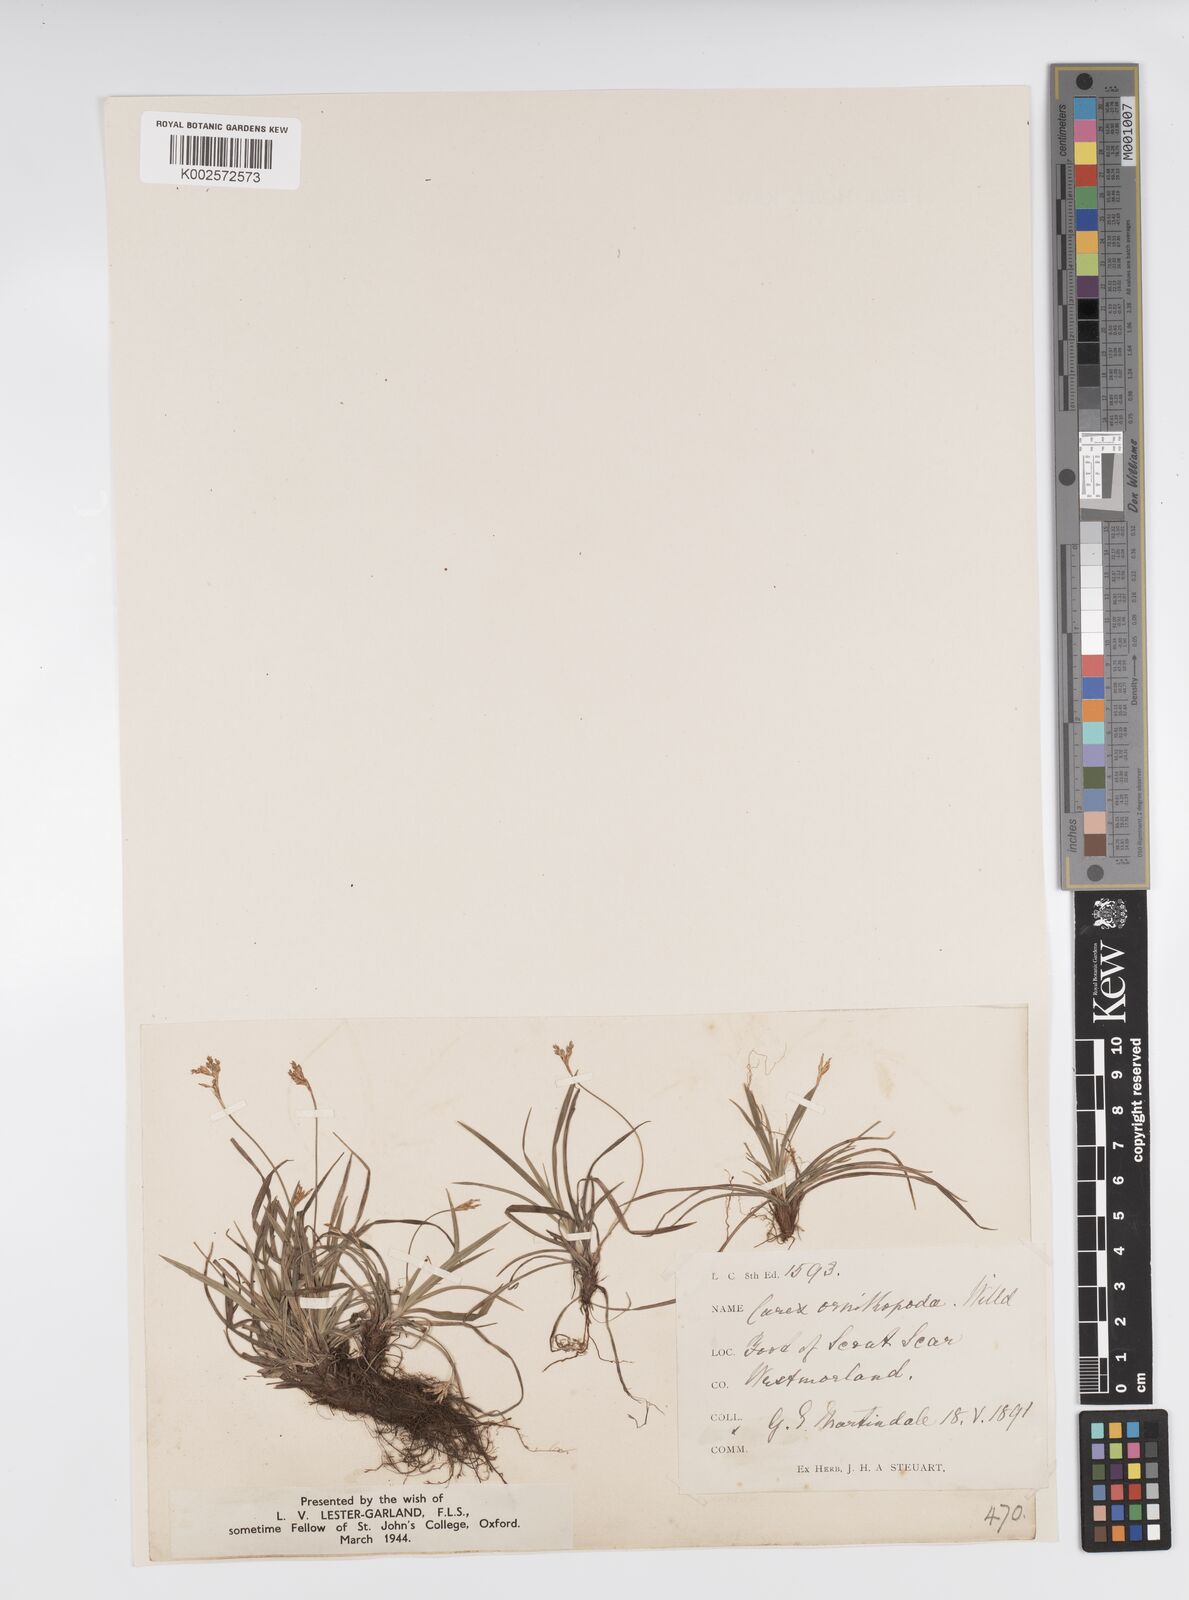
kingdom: Plantae
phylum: Tracheophyta
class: Liliopsida
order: Poales
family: Cyperaceae
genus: Carex
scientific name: Carex ornithopoda
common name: Bird's-foot sedge
